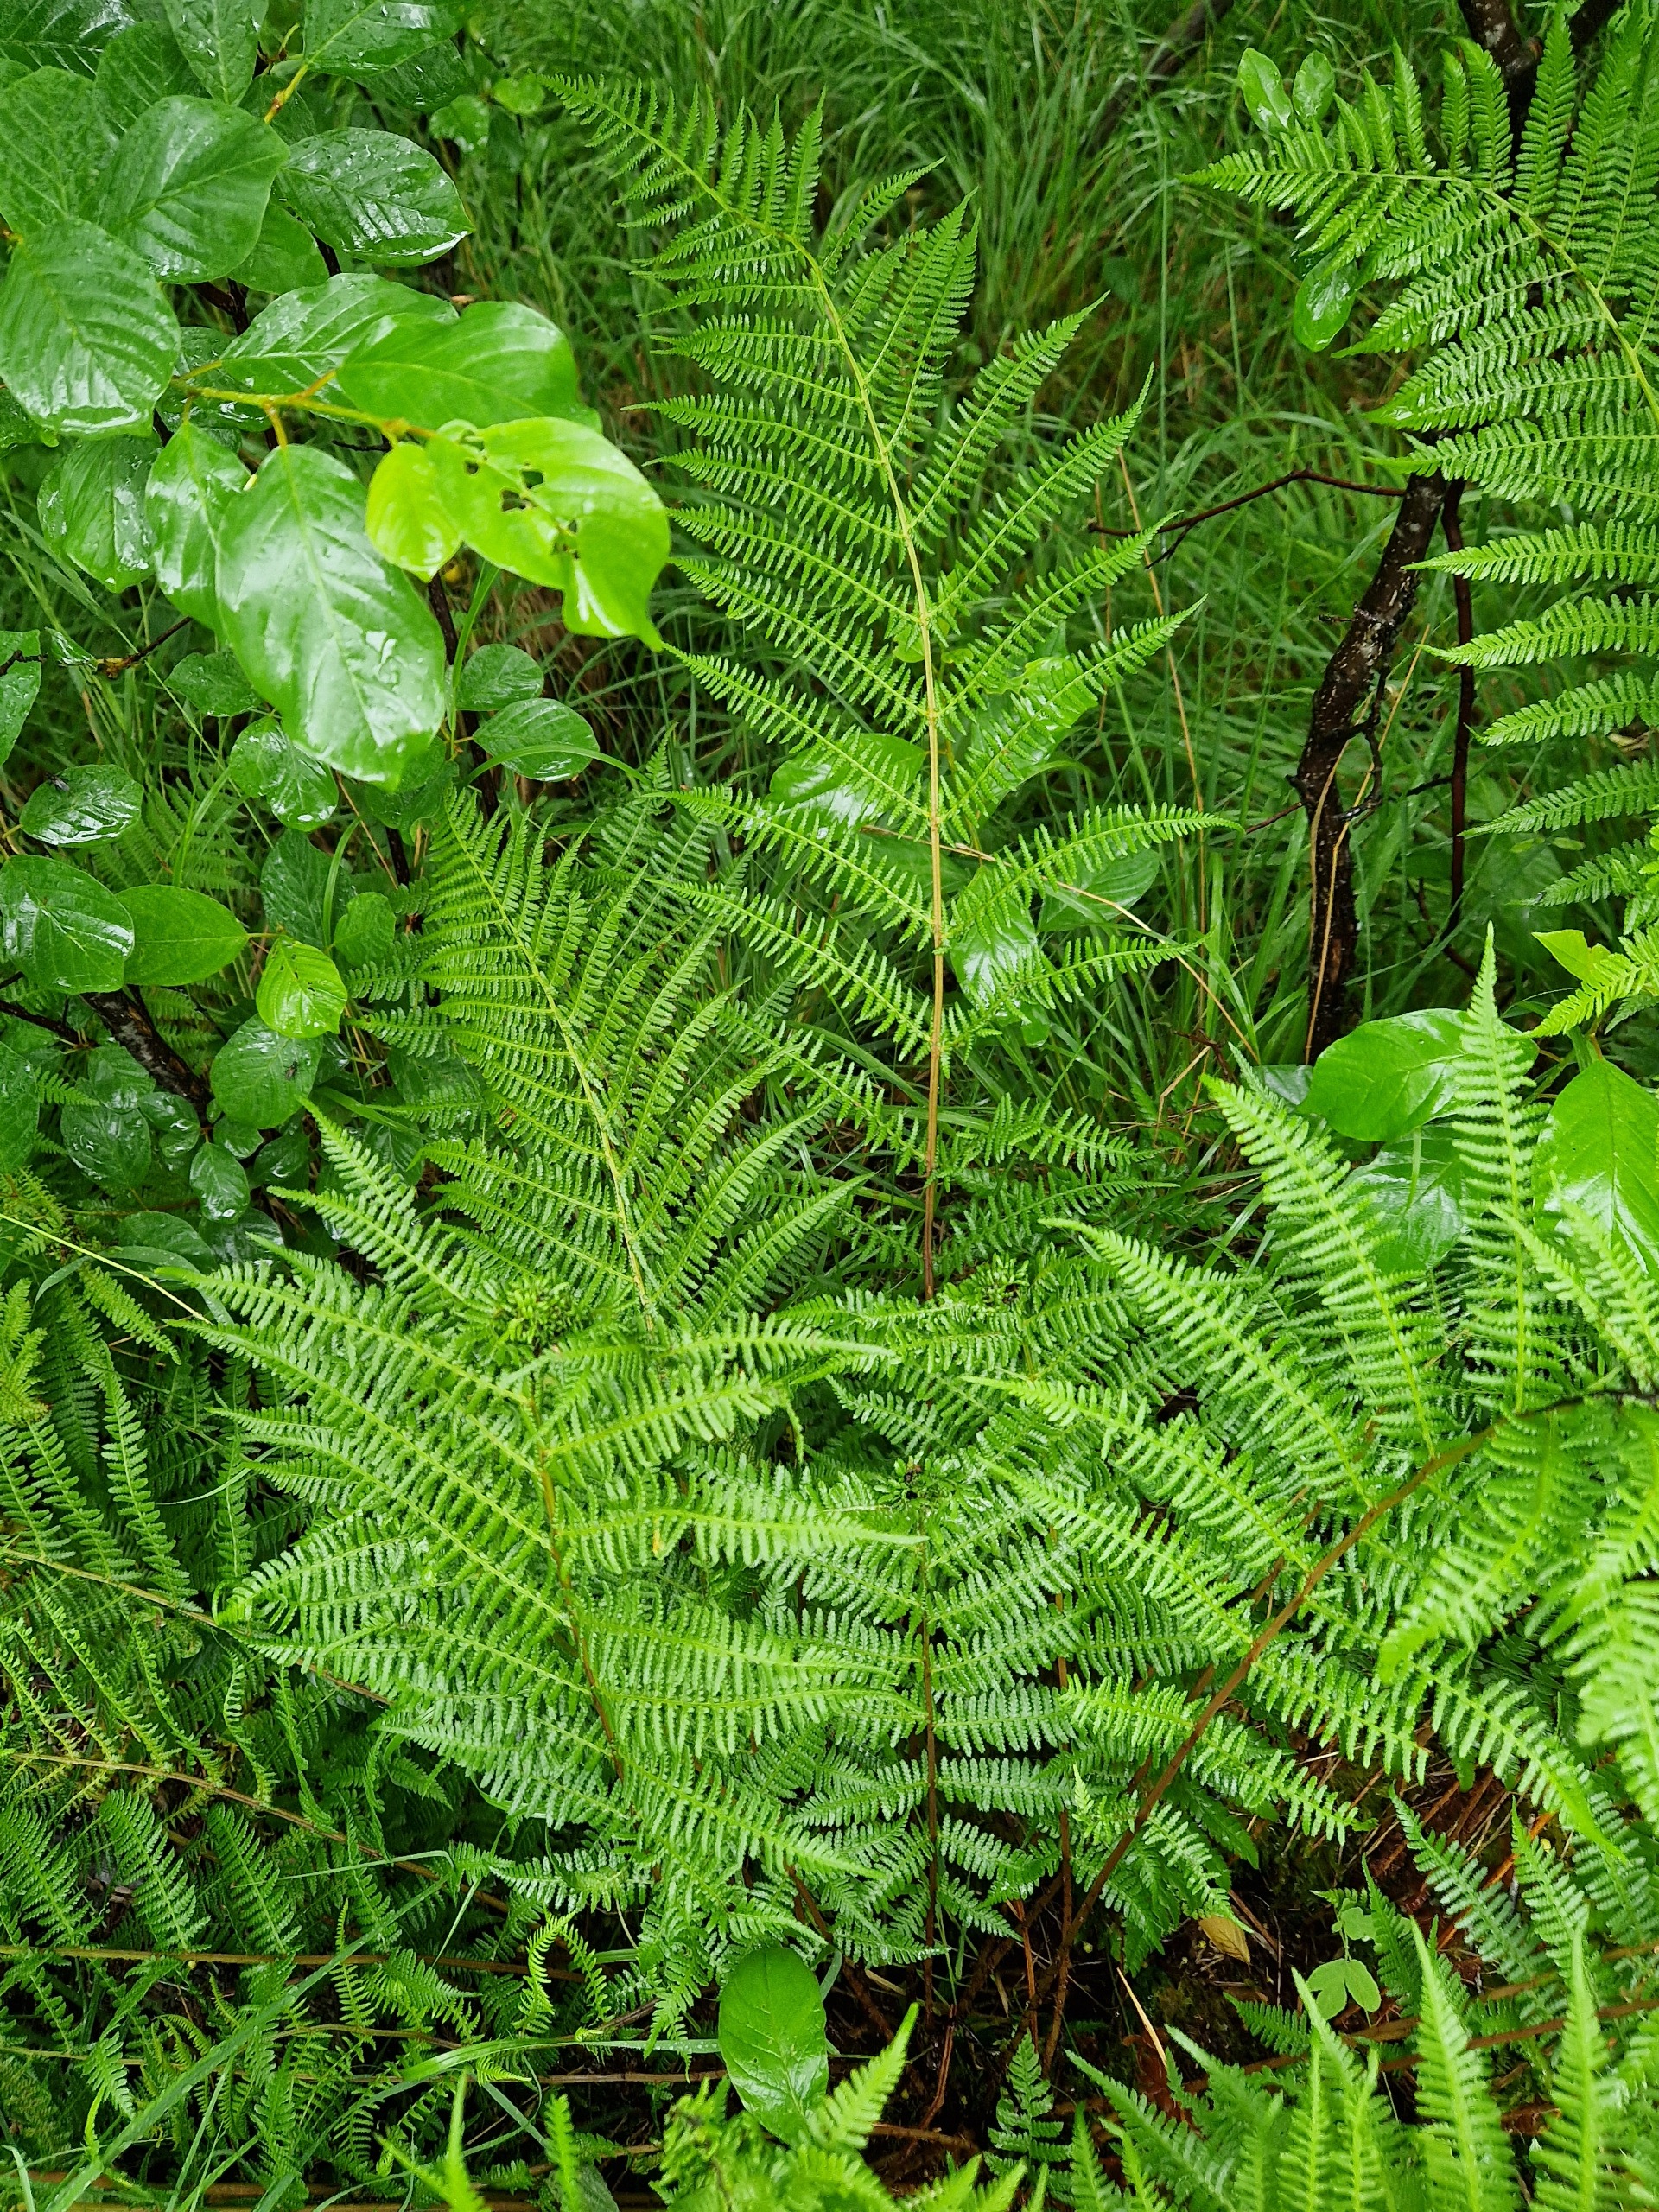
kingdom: Plantae
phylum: Tracheophyta
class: Polypodiopsida
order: Polypodiales
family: Athyriaceae
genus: Athyrium
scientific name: Athyrium filix-femina
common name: Fjerbregne
